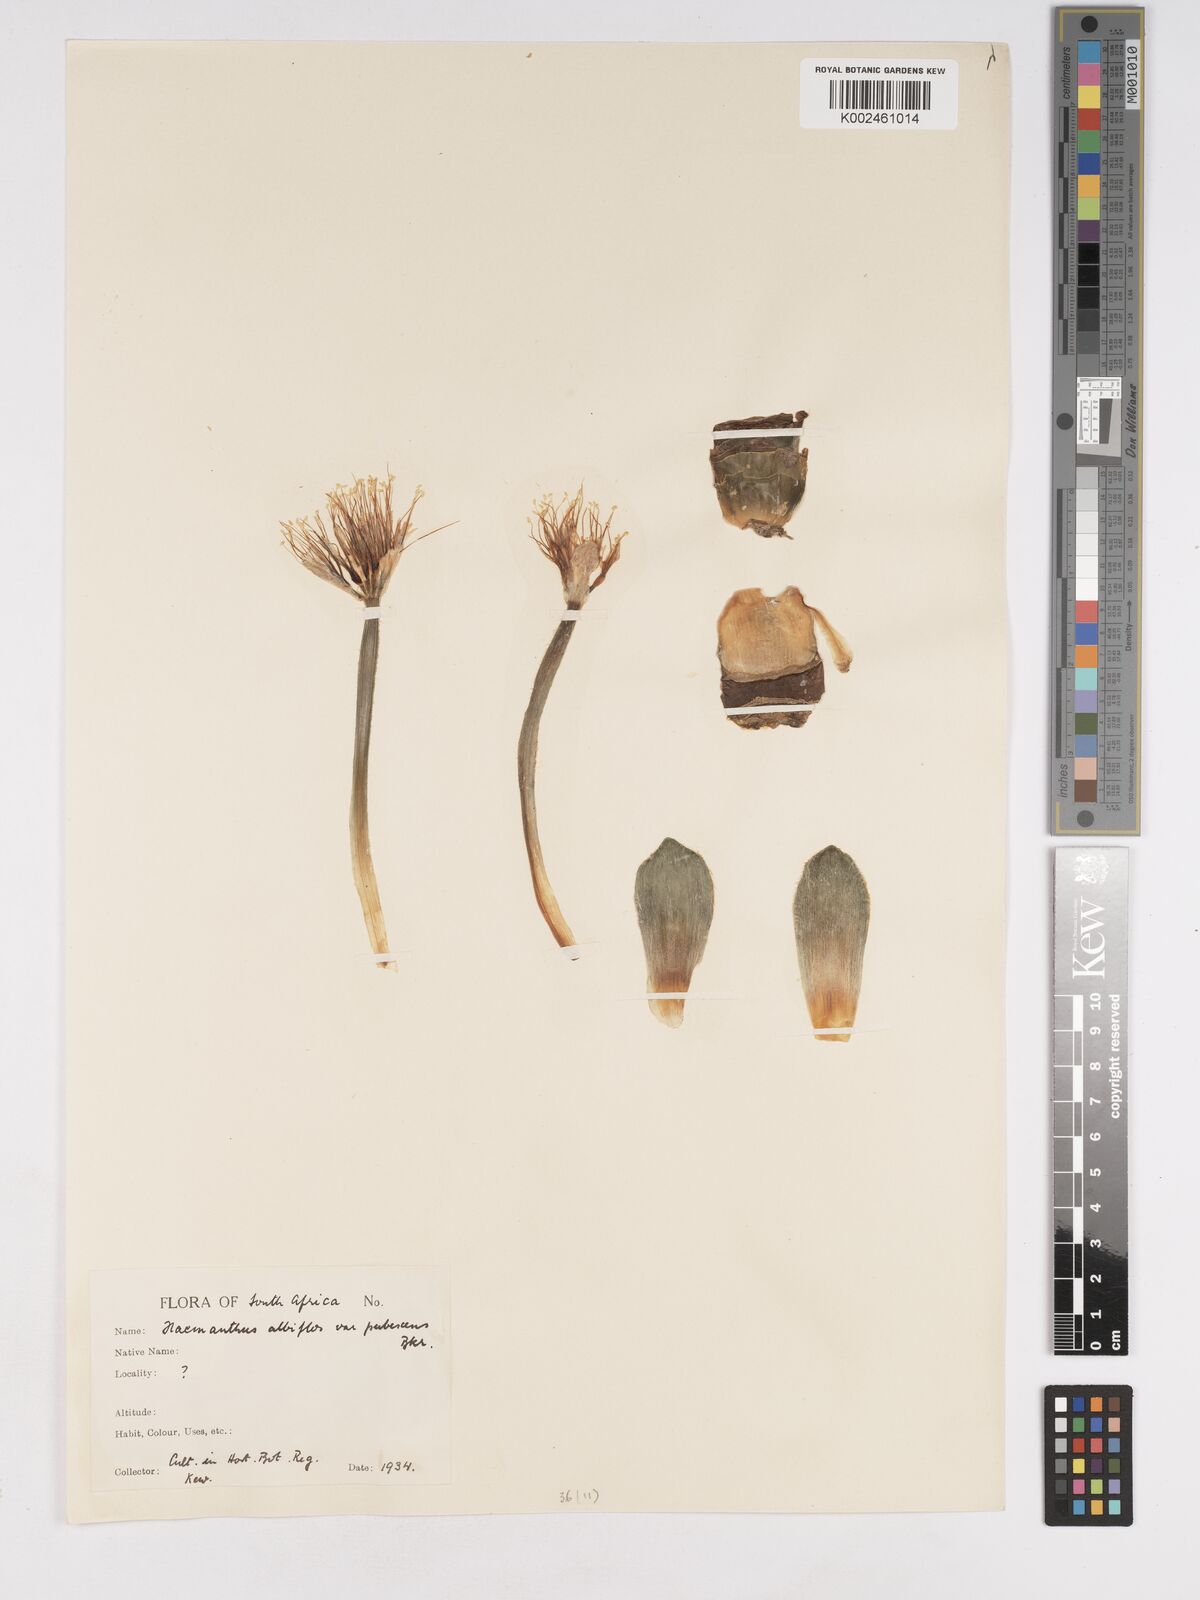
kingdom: Plantae
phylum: Tracheophyta
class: Liliopsida
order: Asparagales
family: Amaryllidaceae
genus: Haemanthus
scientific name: Haemanthus albiflos
